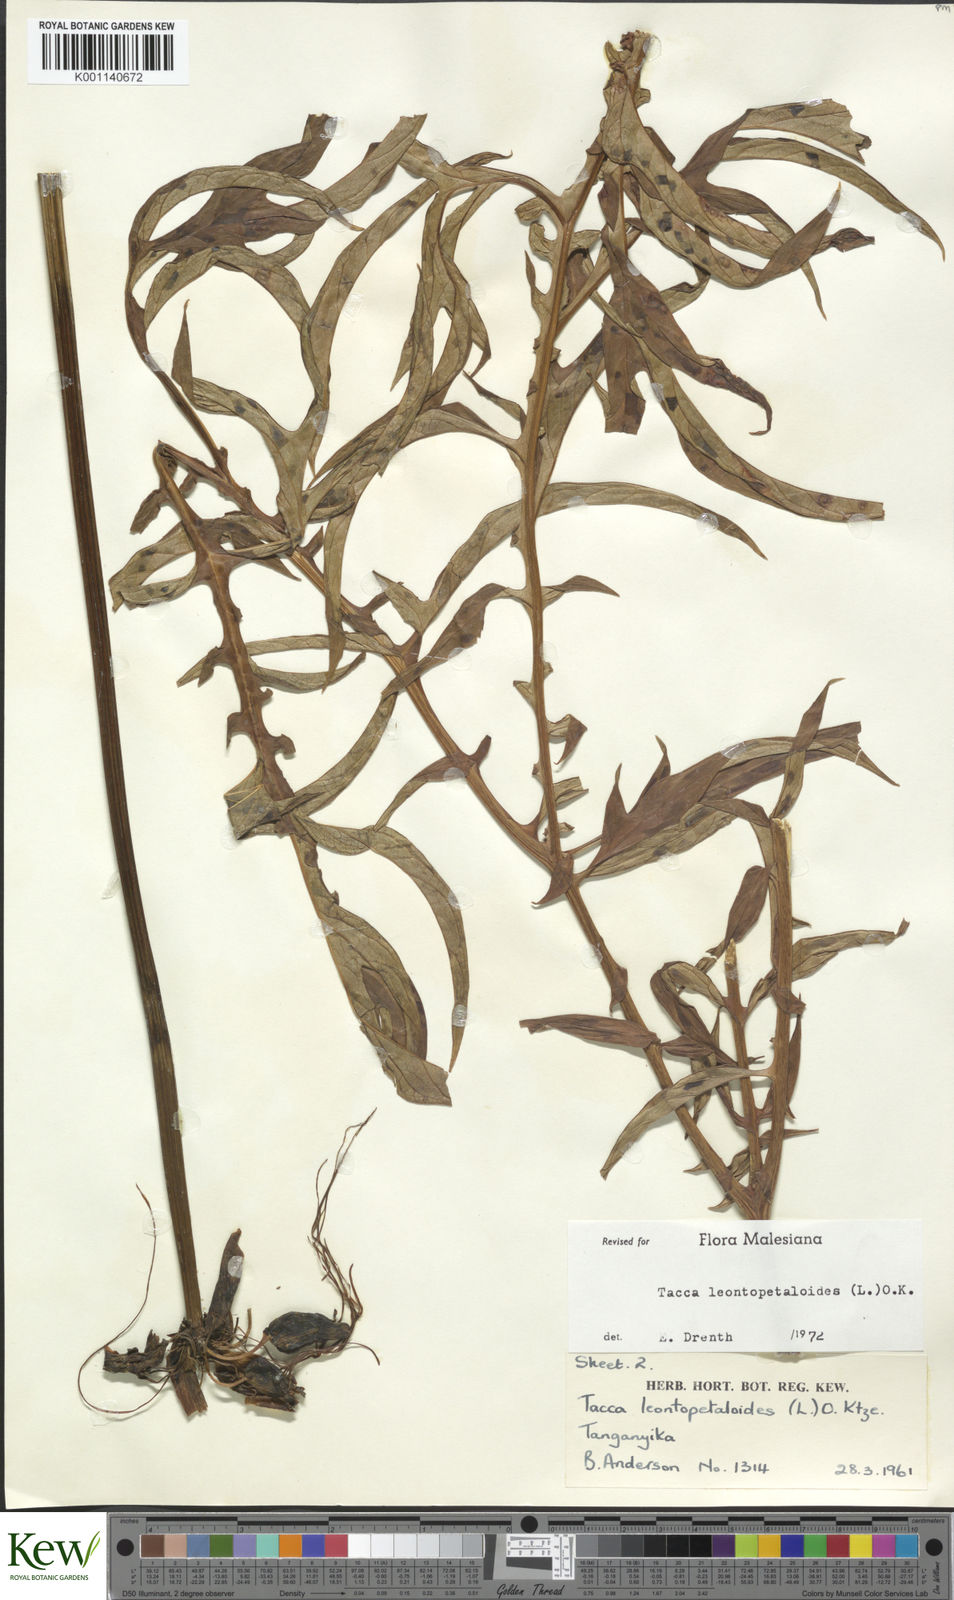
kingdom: Plantae
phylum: Tracheophyta
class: Liliopsida
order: Dioscoreales
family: Dioscoreaceae
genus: Tacca
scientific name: Tacca leontopetaloides
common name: Arrowroot
